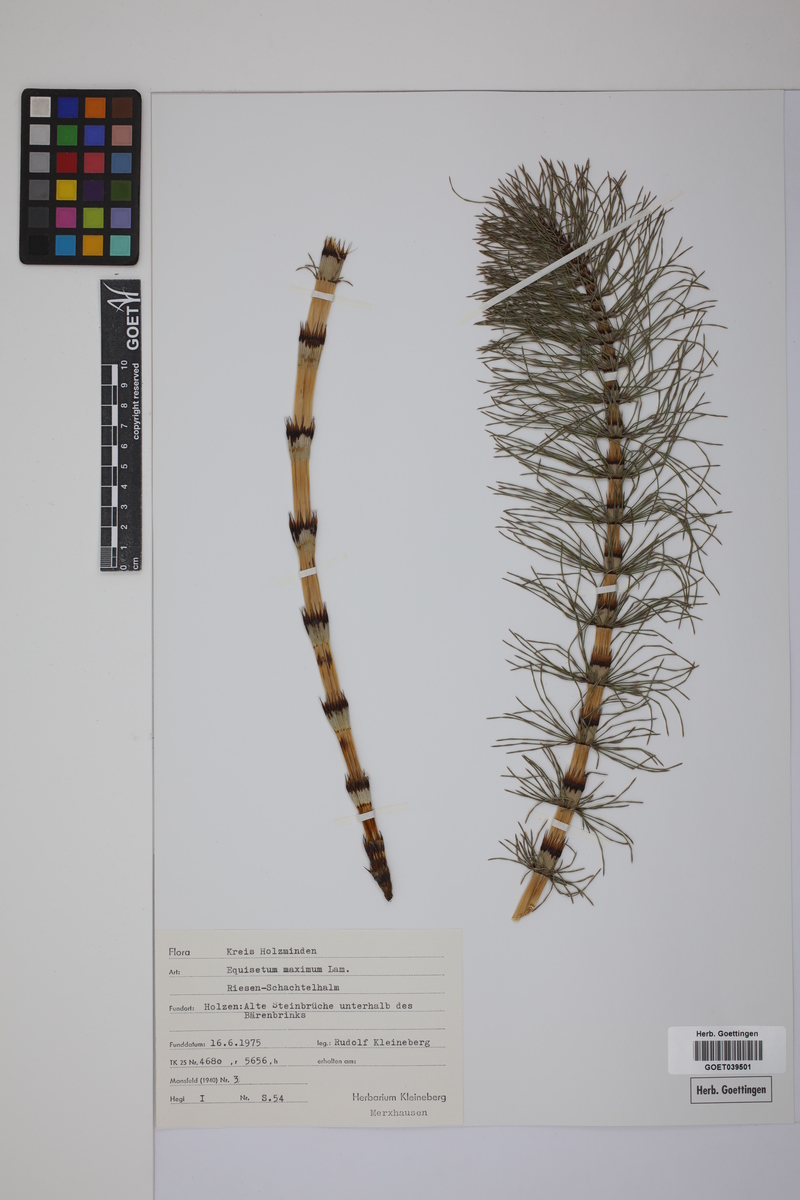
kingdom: Plantae
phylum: Tracheophyta
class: Polypodiopsida
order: Equisetales
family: Equisetaceae
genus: Equisetum
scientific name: Equisetum telmateia
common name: Great horsetail
